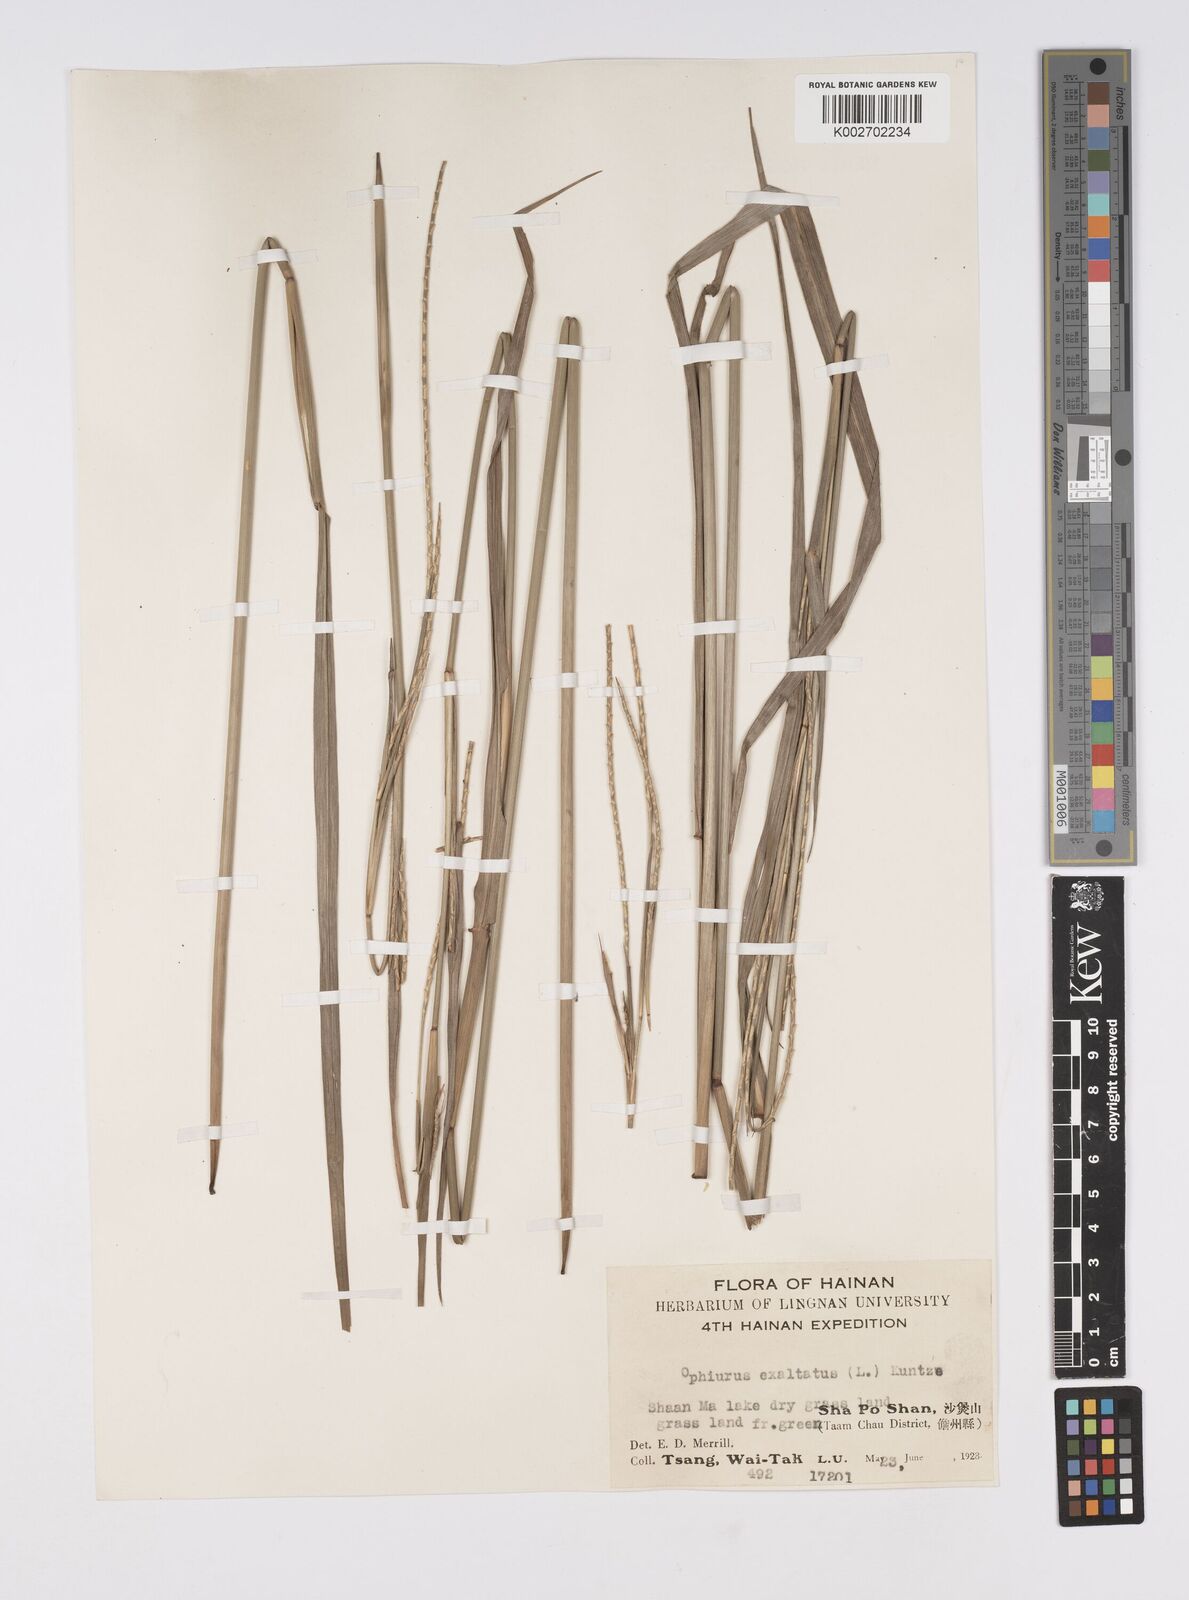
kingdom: Plantae
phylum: Tracheophyta
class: Liliopsida
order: Poales
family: Poaceae
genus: Ophiuros
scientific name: Ophiuros exaltatus
